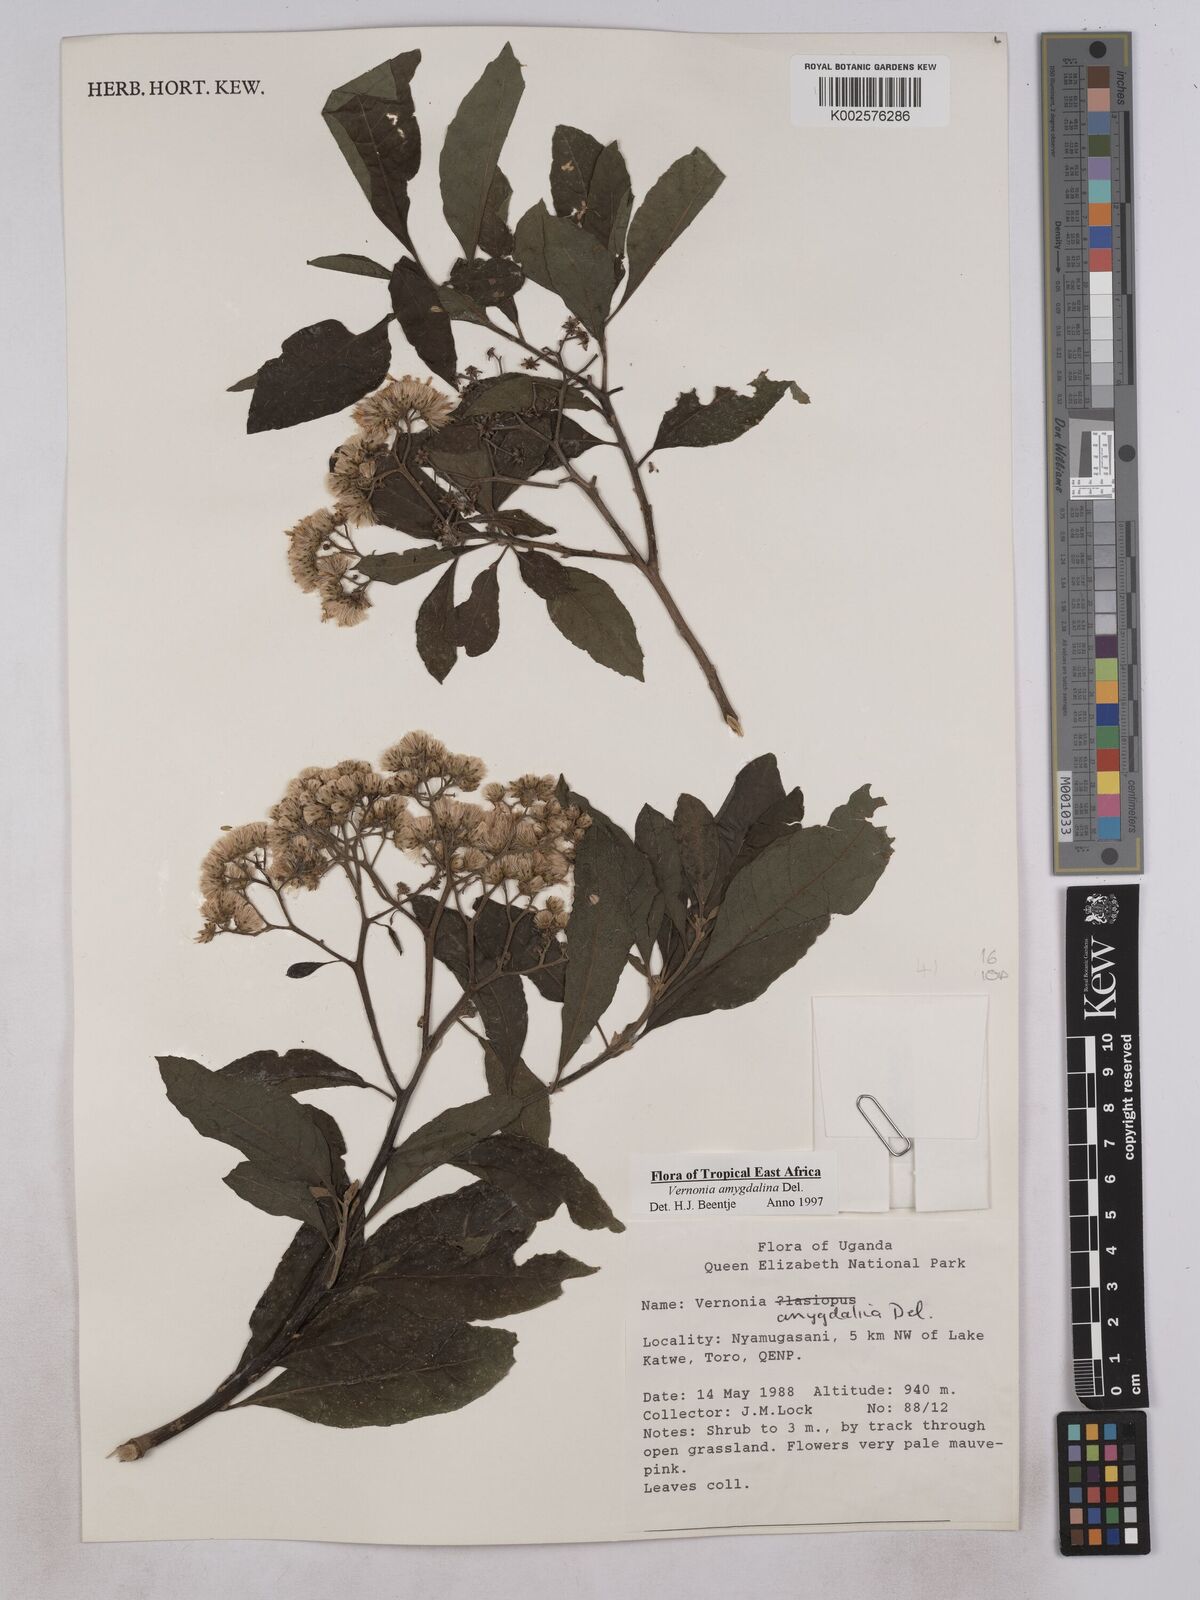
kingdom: Plantae
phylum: Tracheophyta
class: Magnoliopsida
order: Asterales
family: Asteraceae
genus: Gymnanthemum
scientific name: Gymnanthemum amygdalinum
